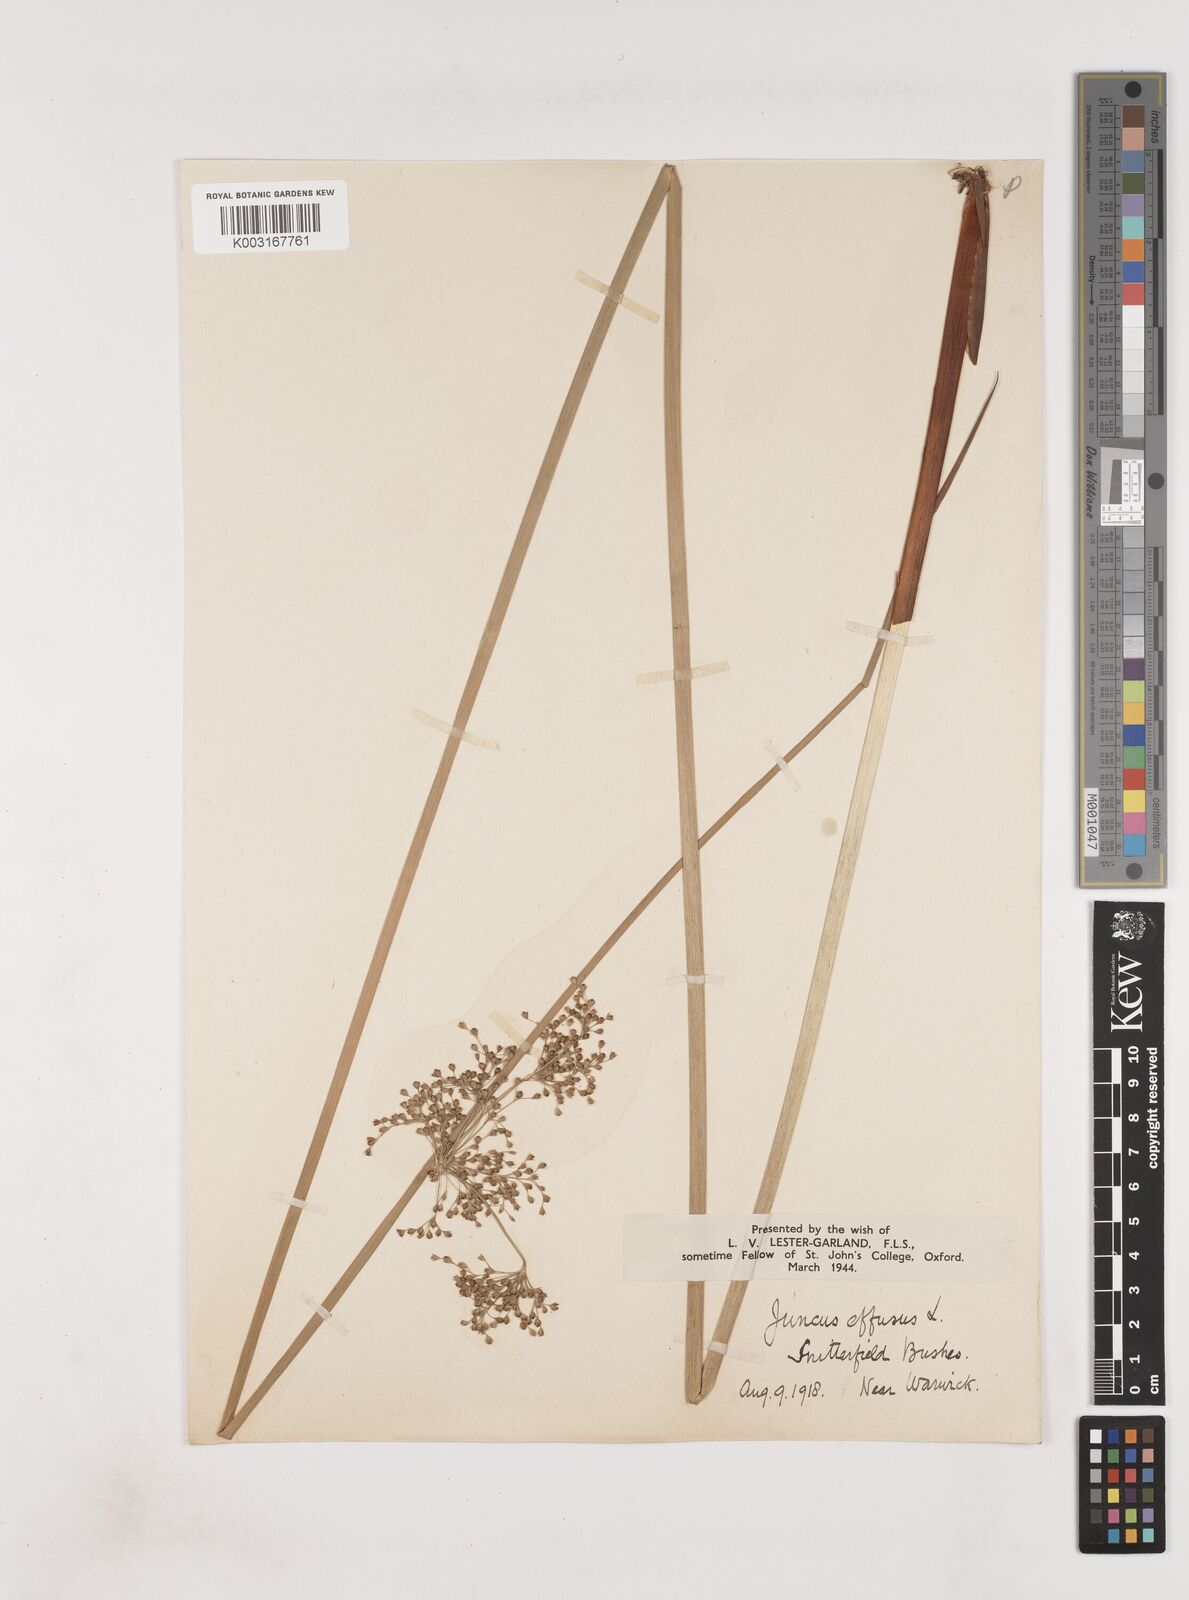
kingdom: Plantae
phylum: Tracheophyta
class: Liliopsida
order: Poales
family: Juncaceae
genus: Juncus
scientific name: Juncus effusus
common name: Soft rush
